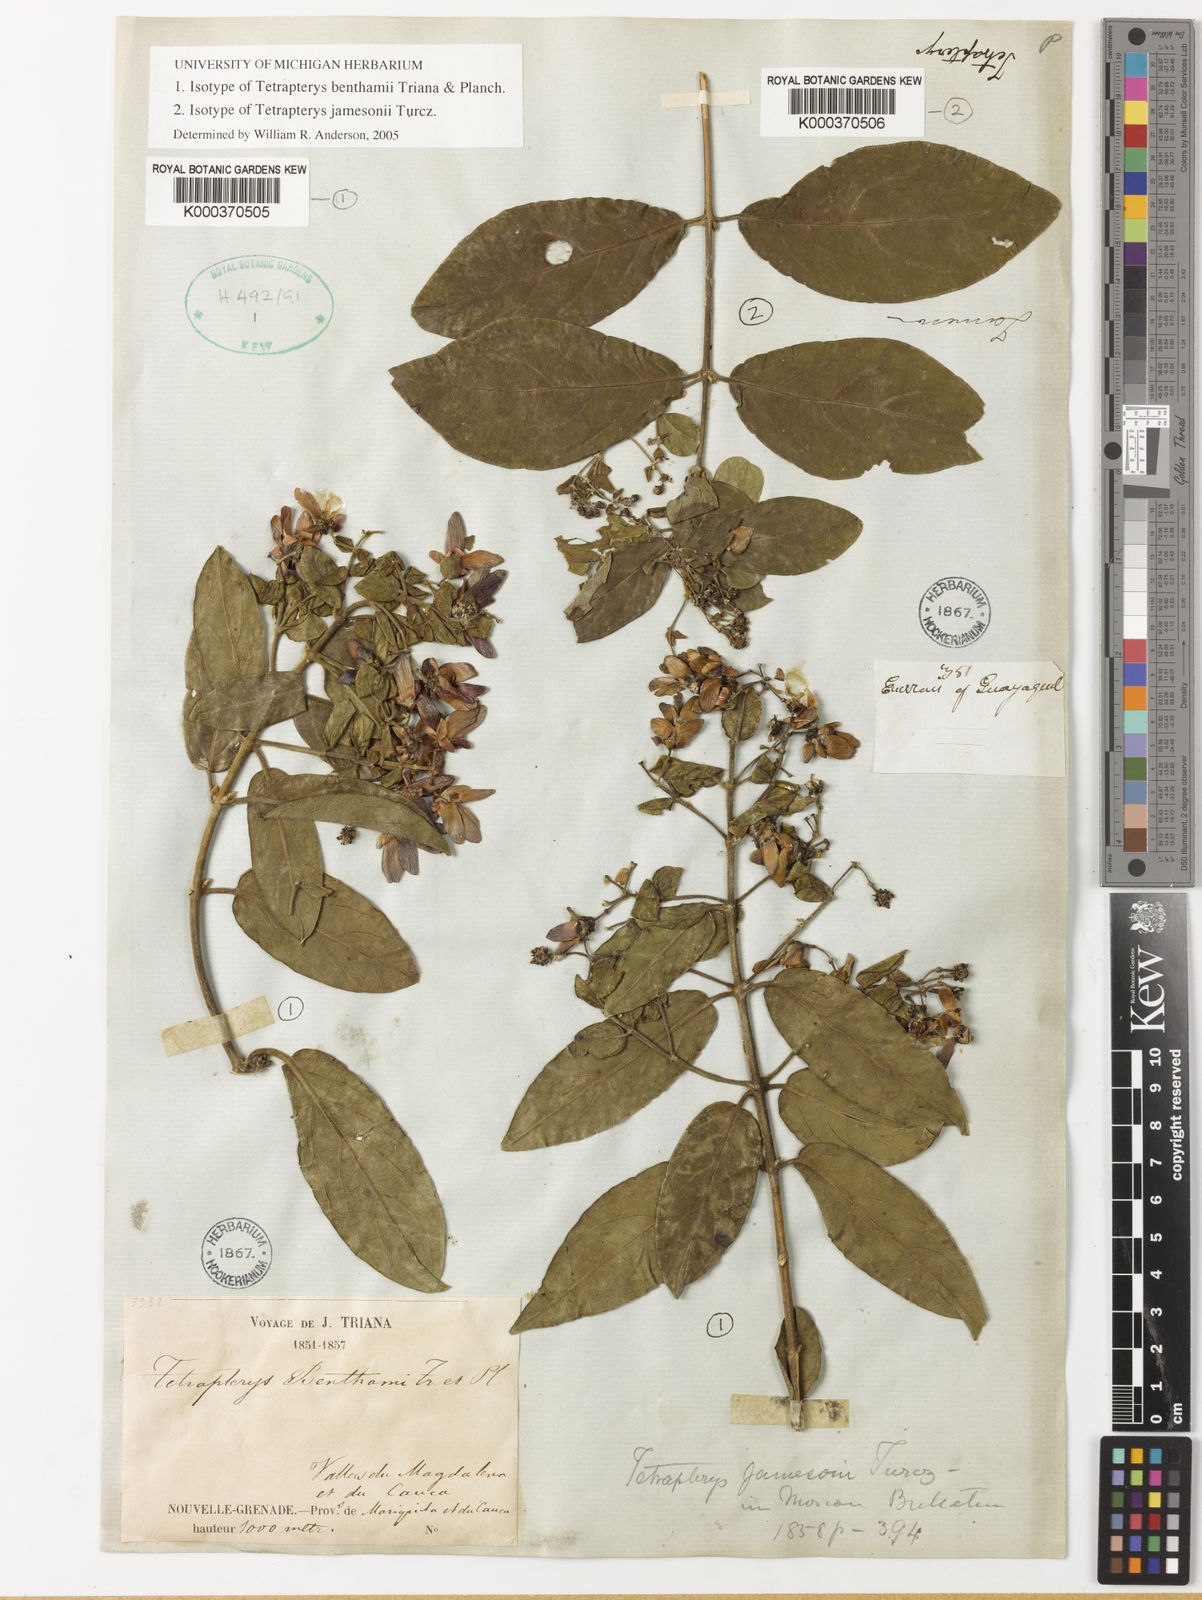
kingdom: Plantae
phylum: Tracheophyta
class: Magnoliopsida
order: Malpighiales
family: Malpighiaceae
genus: Tetrapterys
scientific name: Tetrapterys jamesonii
